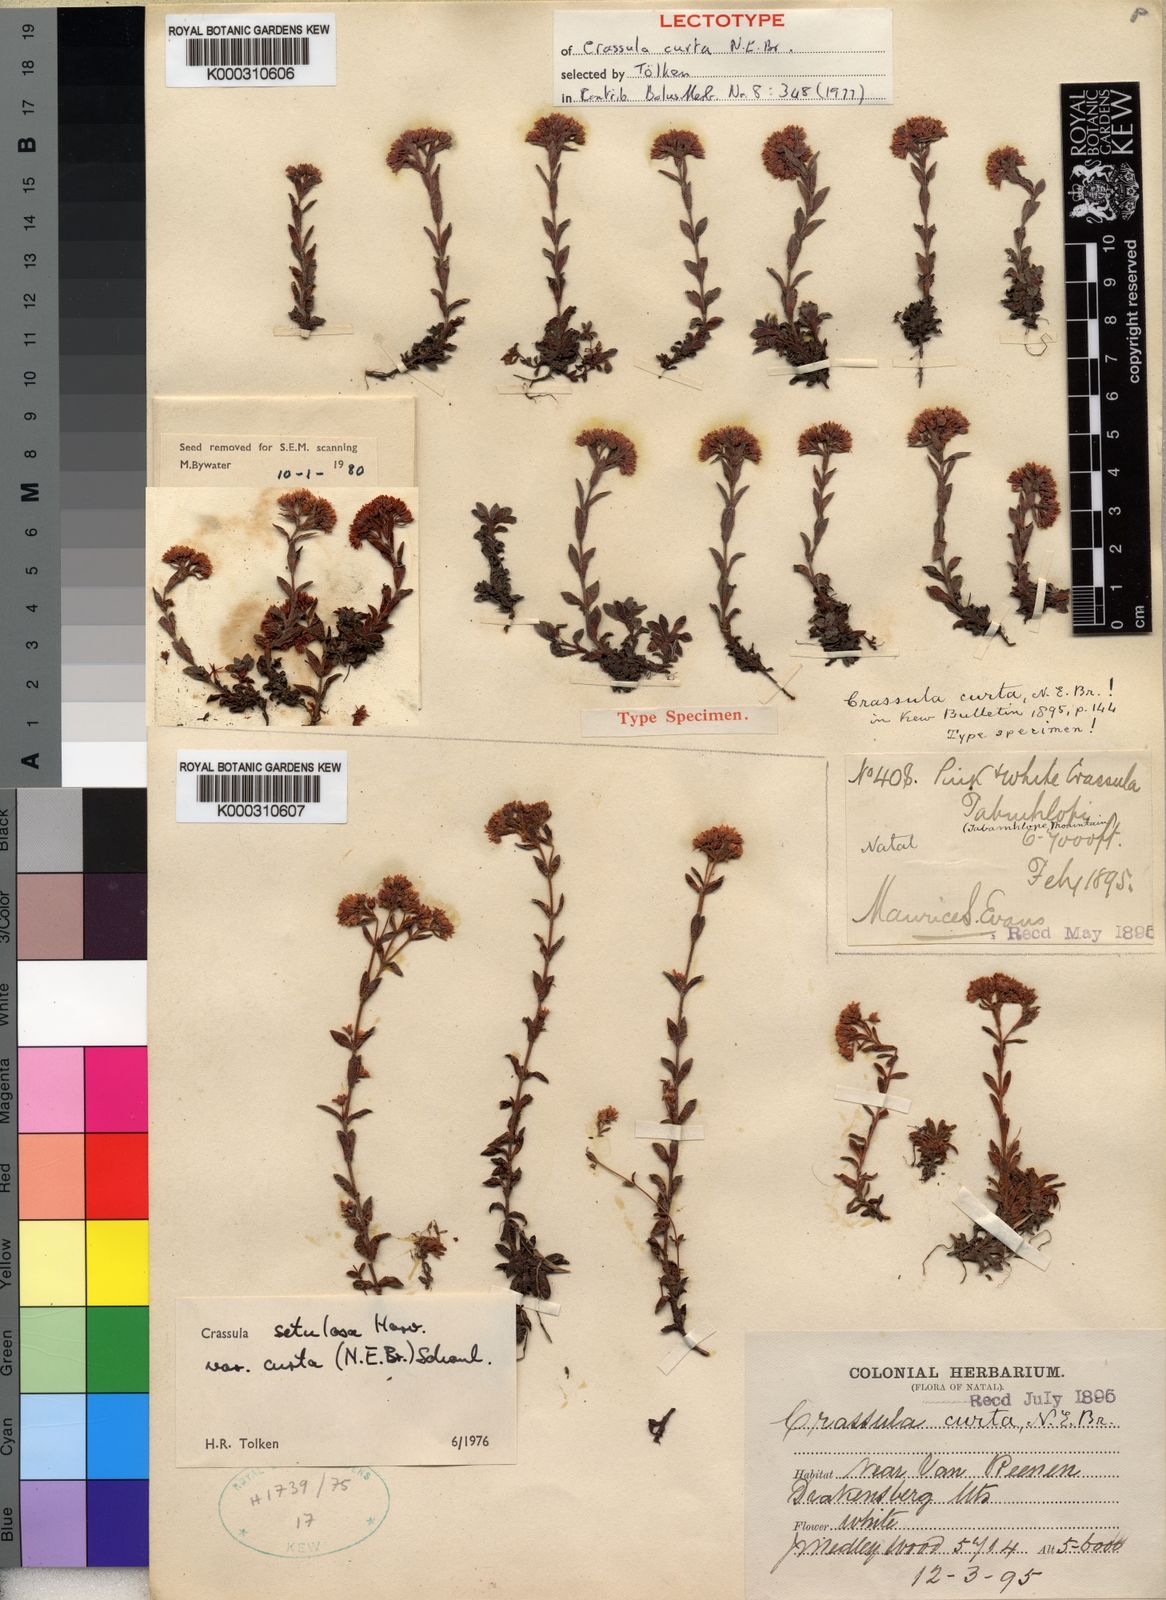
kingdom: Plantae
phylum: Tracheophyta
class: Magnoliopsida
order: Saxifragales
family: Crassulaceae
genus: Crassula
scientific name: Crassula setulosa
